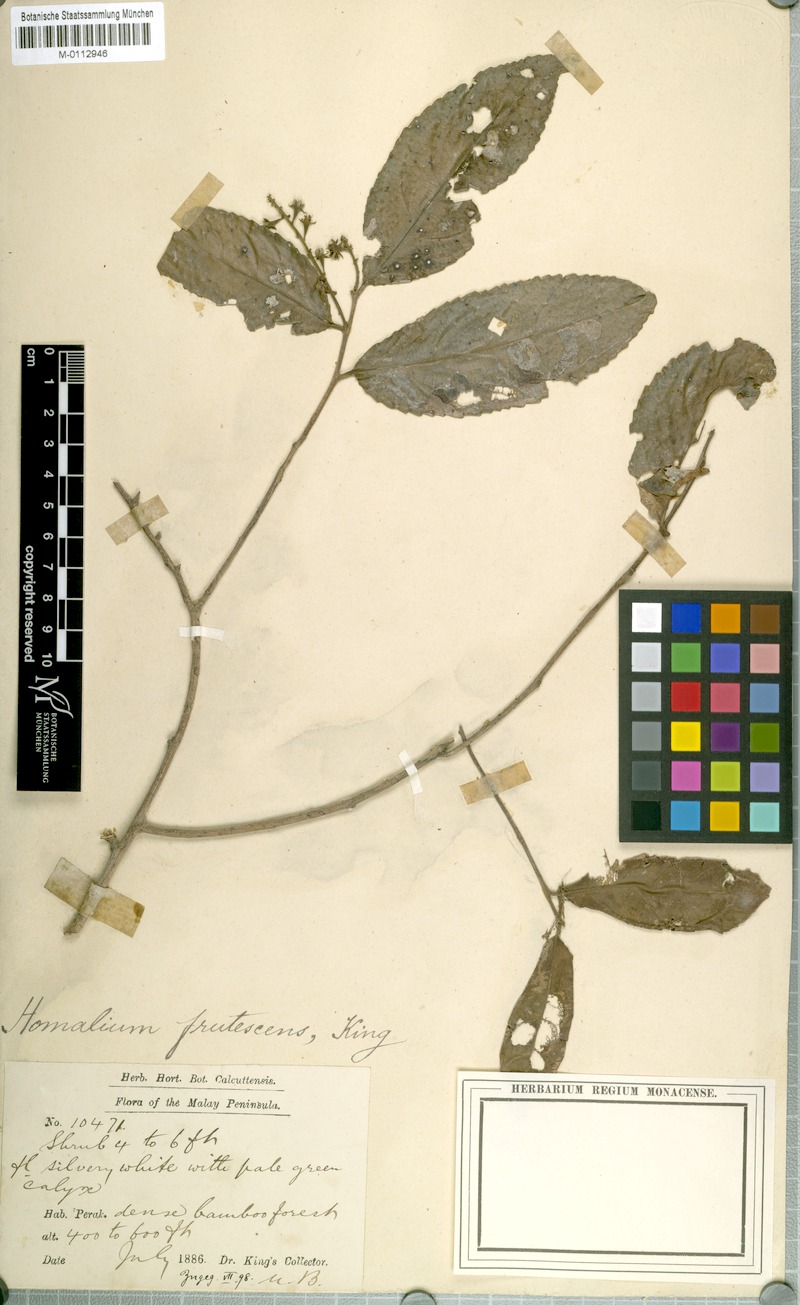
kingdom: Plantae
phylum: Tracheophyta
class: Magnoliopsida
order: Malpighiales
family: Salicaceae
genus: Homalium
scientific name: Homalium caryophyllaceum
